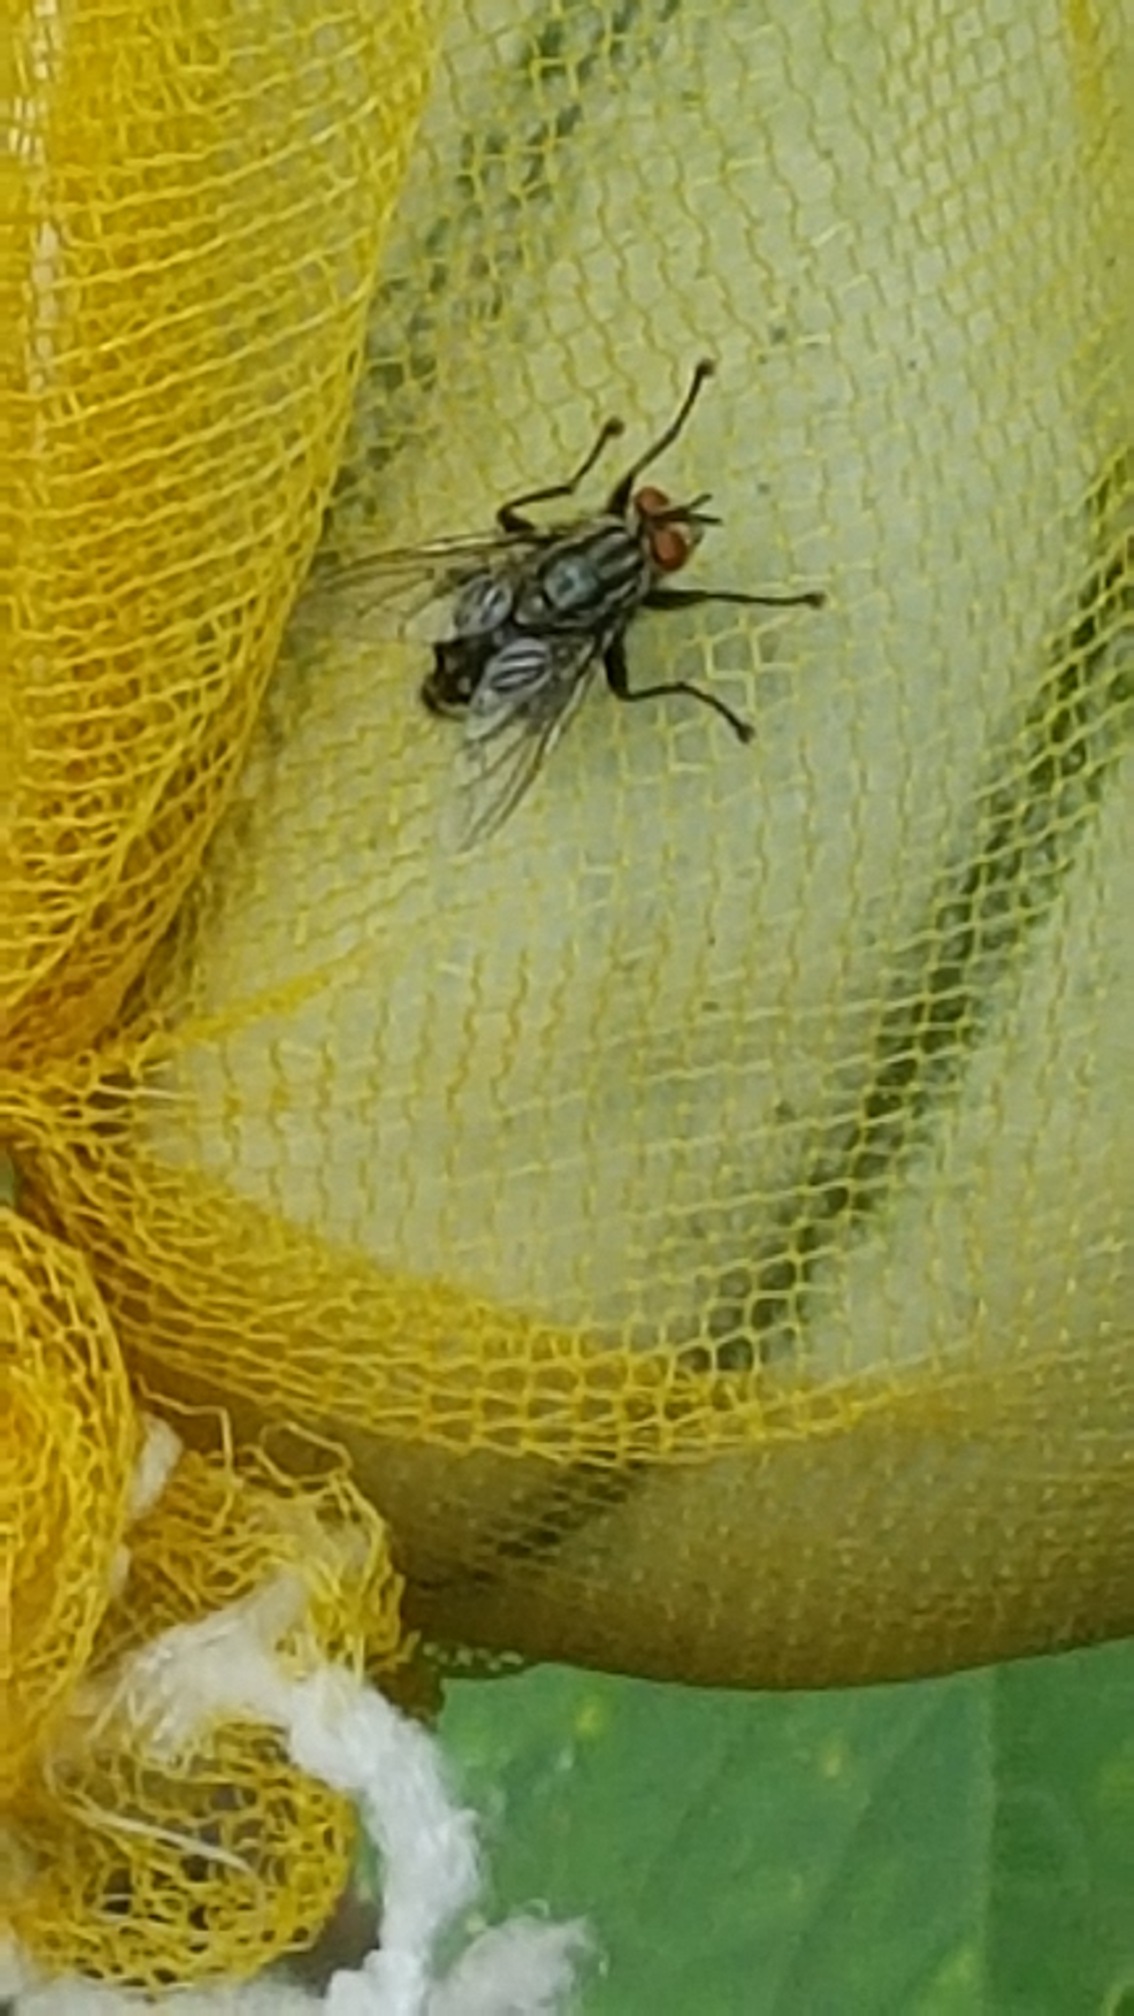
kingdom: Animalia
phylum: Arthropoda
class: Insecta
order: Diptera
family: Sarcophagidae
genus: Sarcophaga
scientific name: Sarcophaga
